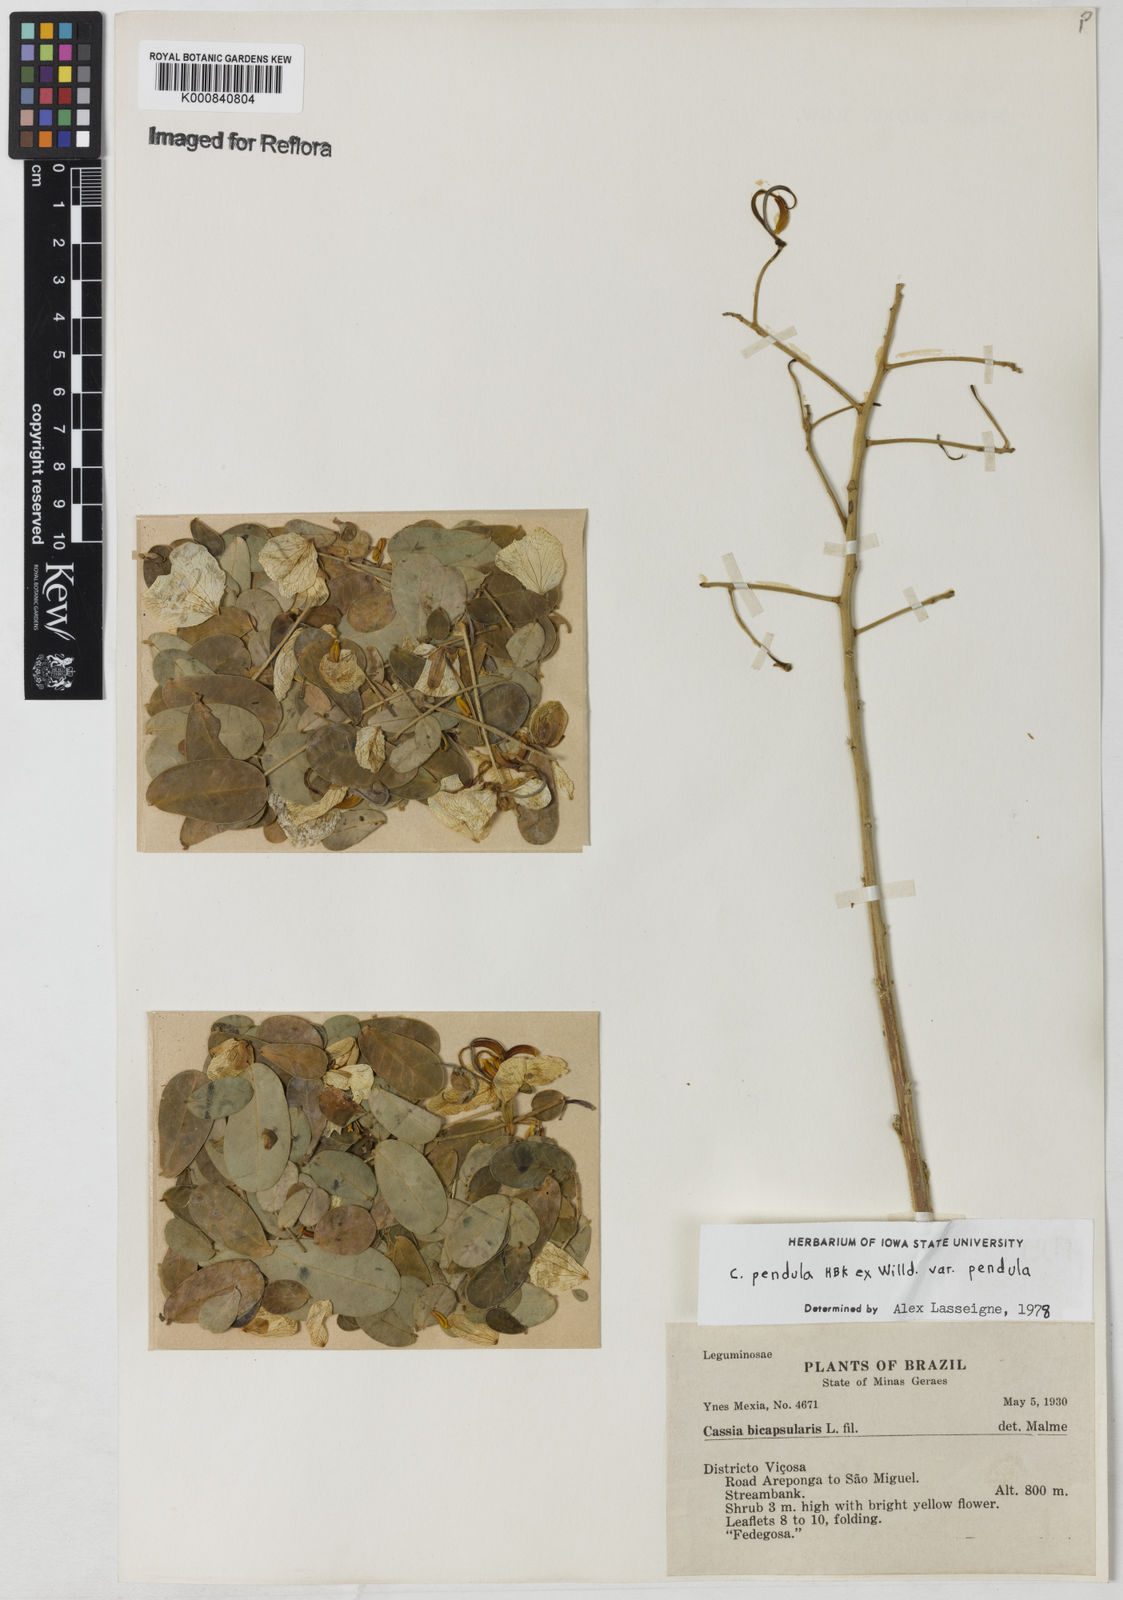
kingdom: Plantae
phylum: Tracheophyta
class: Magnoliopsida
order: Fabales
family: Fabaceae
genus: Senna
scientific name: Senna pendula
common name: Easter cassia
